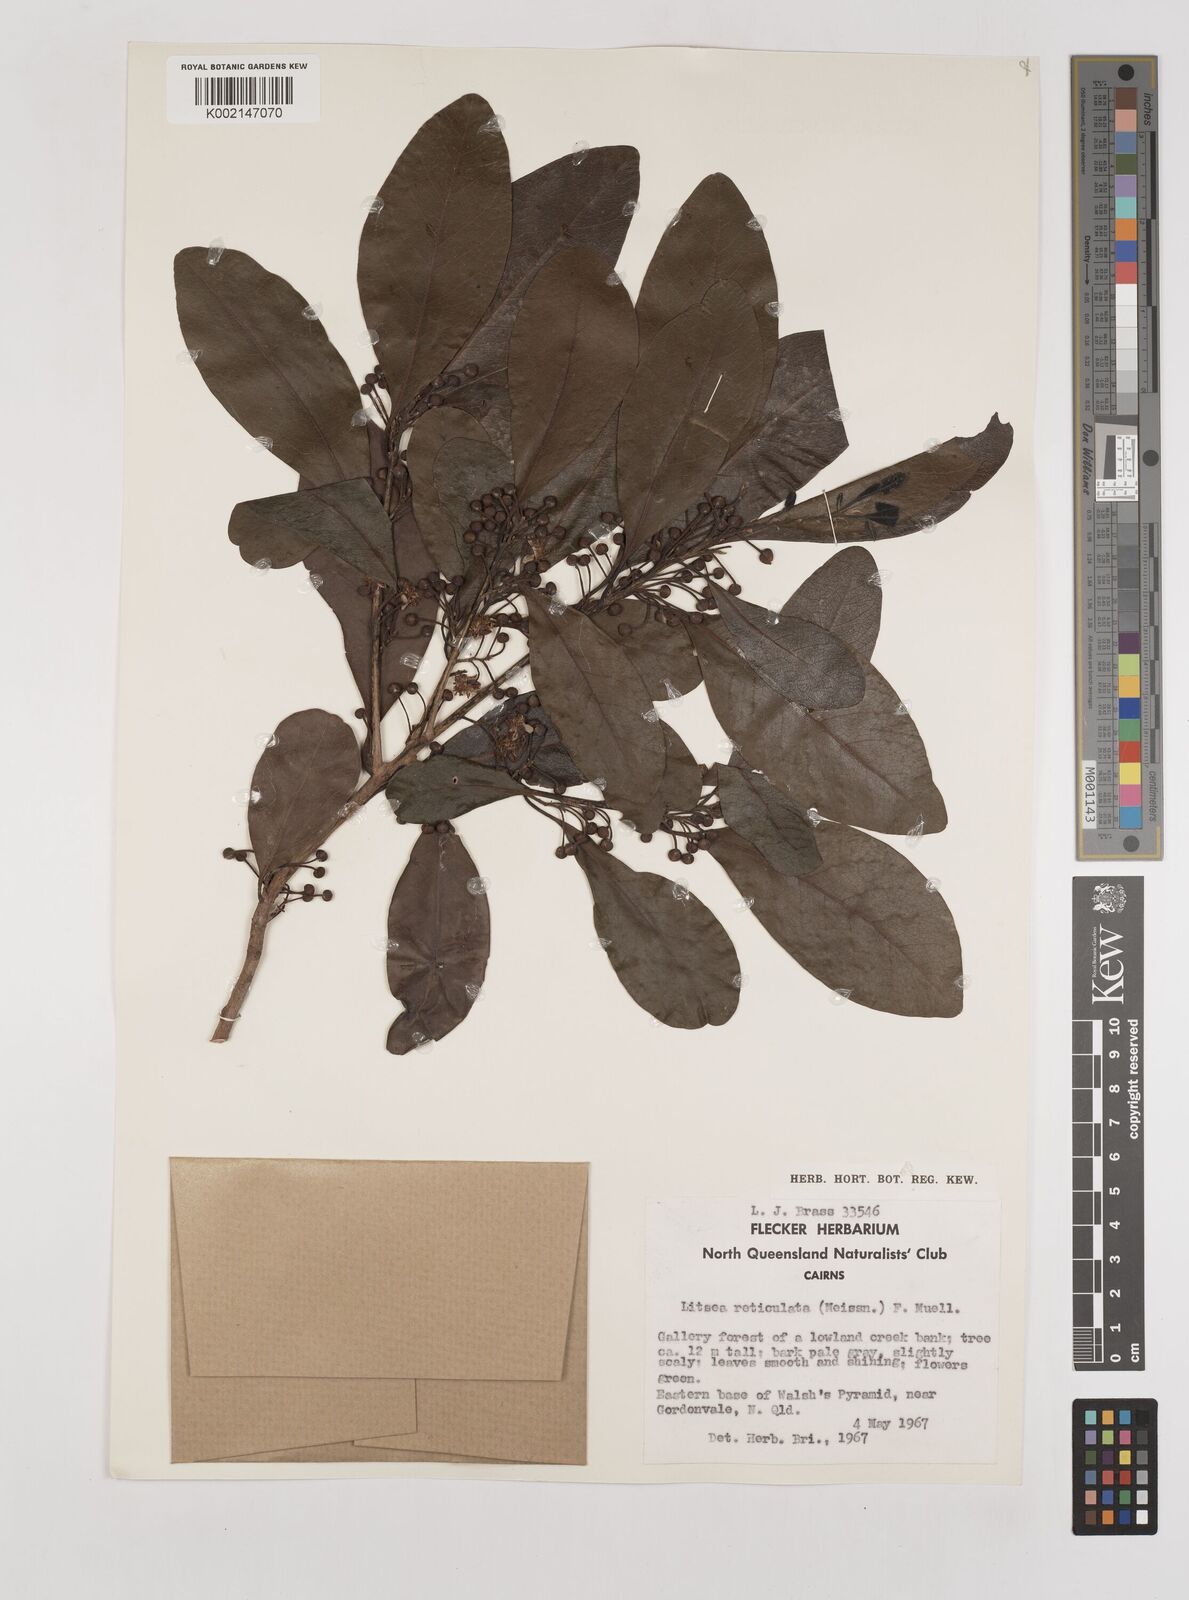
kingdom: Plantae
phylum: Tracheophyta
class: Magnoliopsida
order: Laurales
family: Lauraceae
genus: Litsea
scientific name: Litsea reticulata
